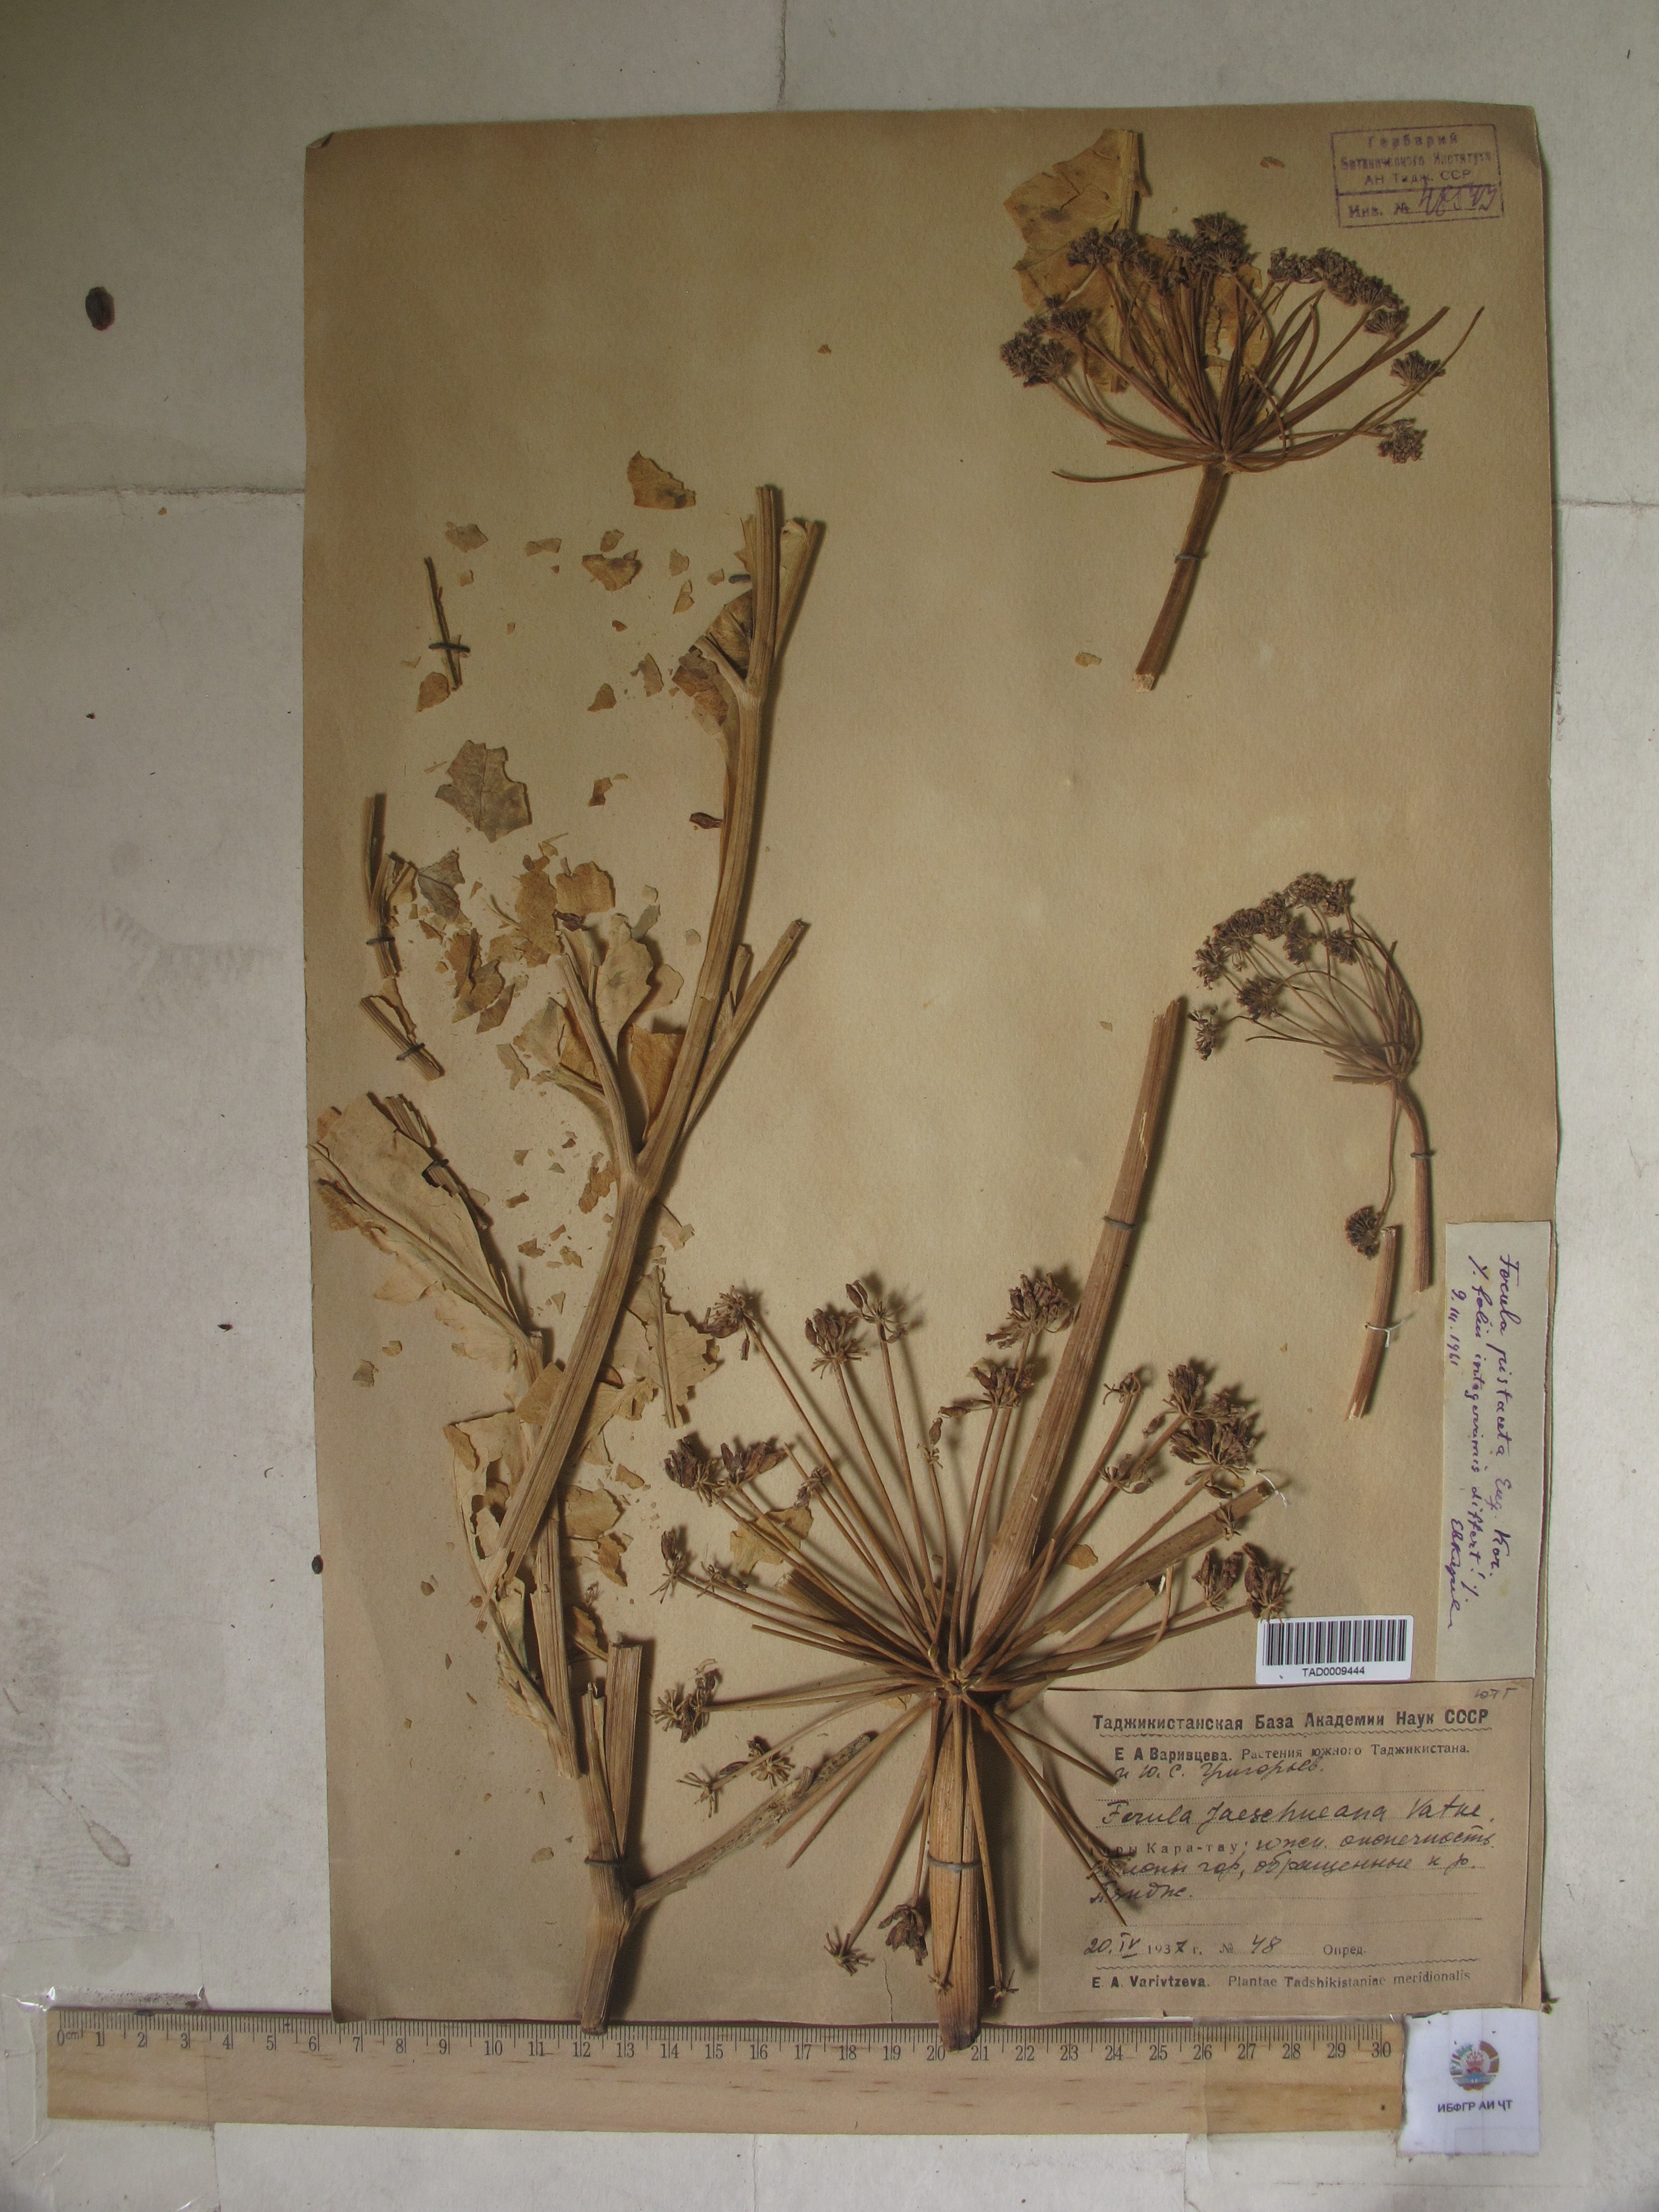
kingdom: Plantae
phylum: Tracheophyta
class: Magnoliopsida
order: Apiales
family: Apiaceae
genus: Ferula
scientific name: Ferula tadshikorum
